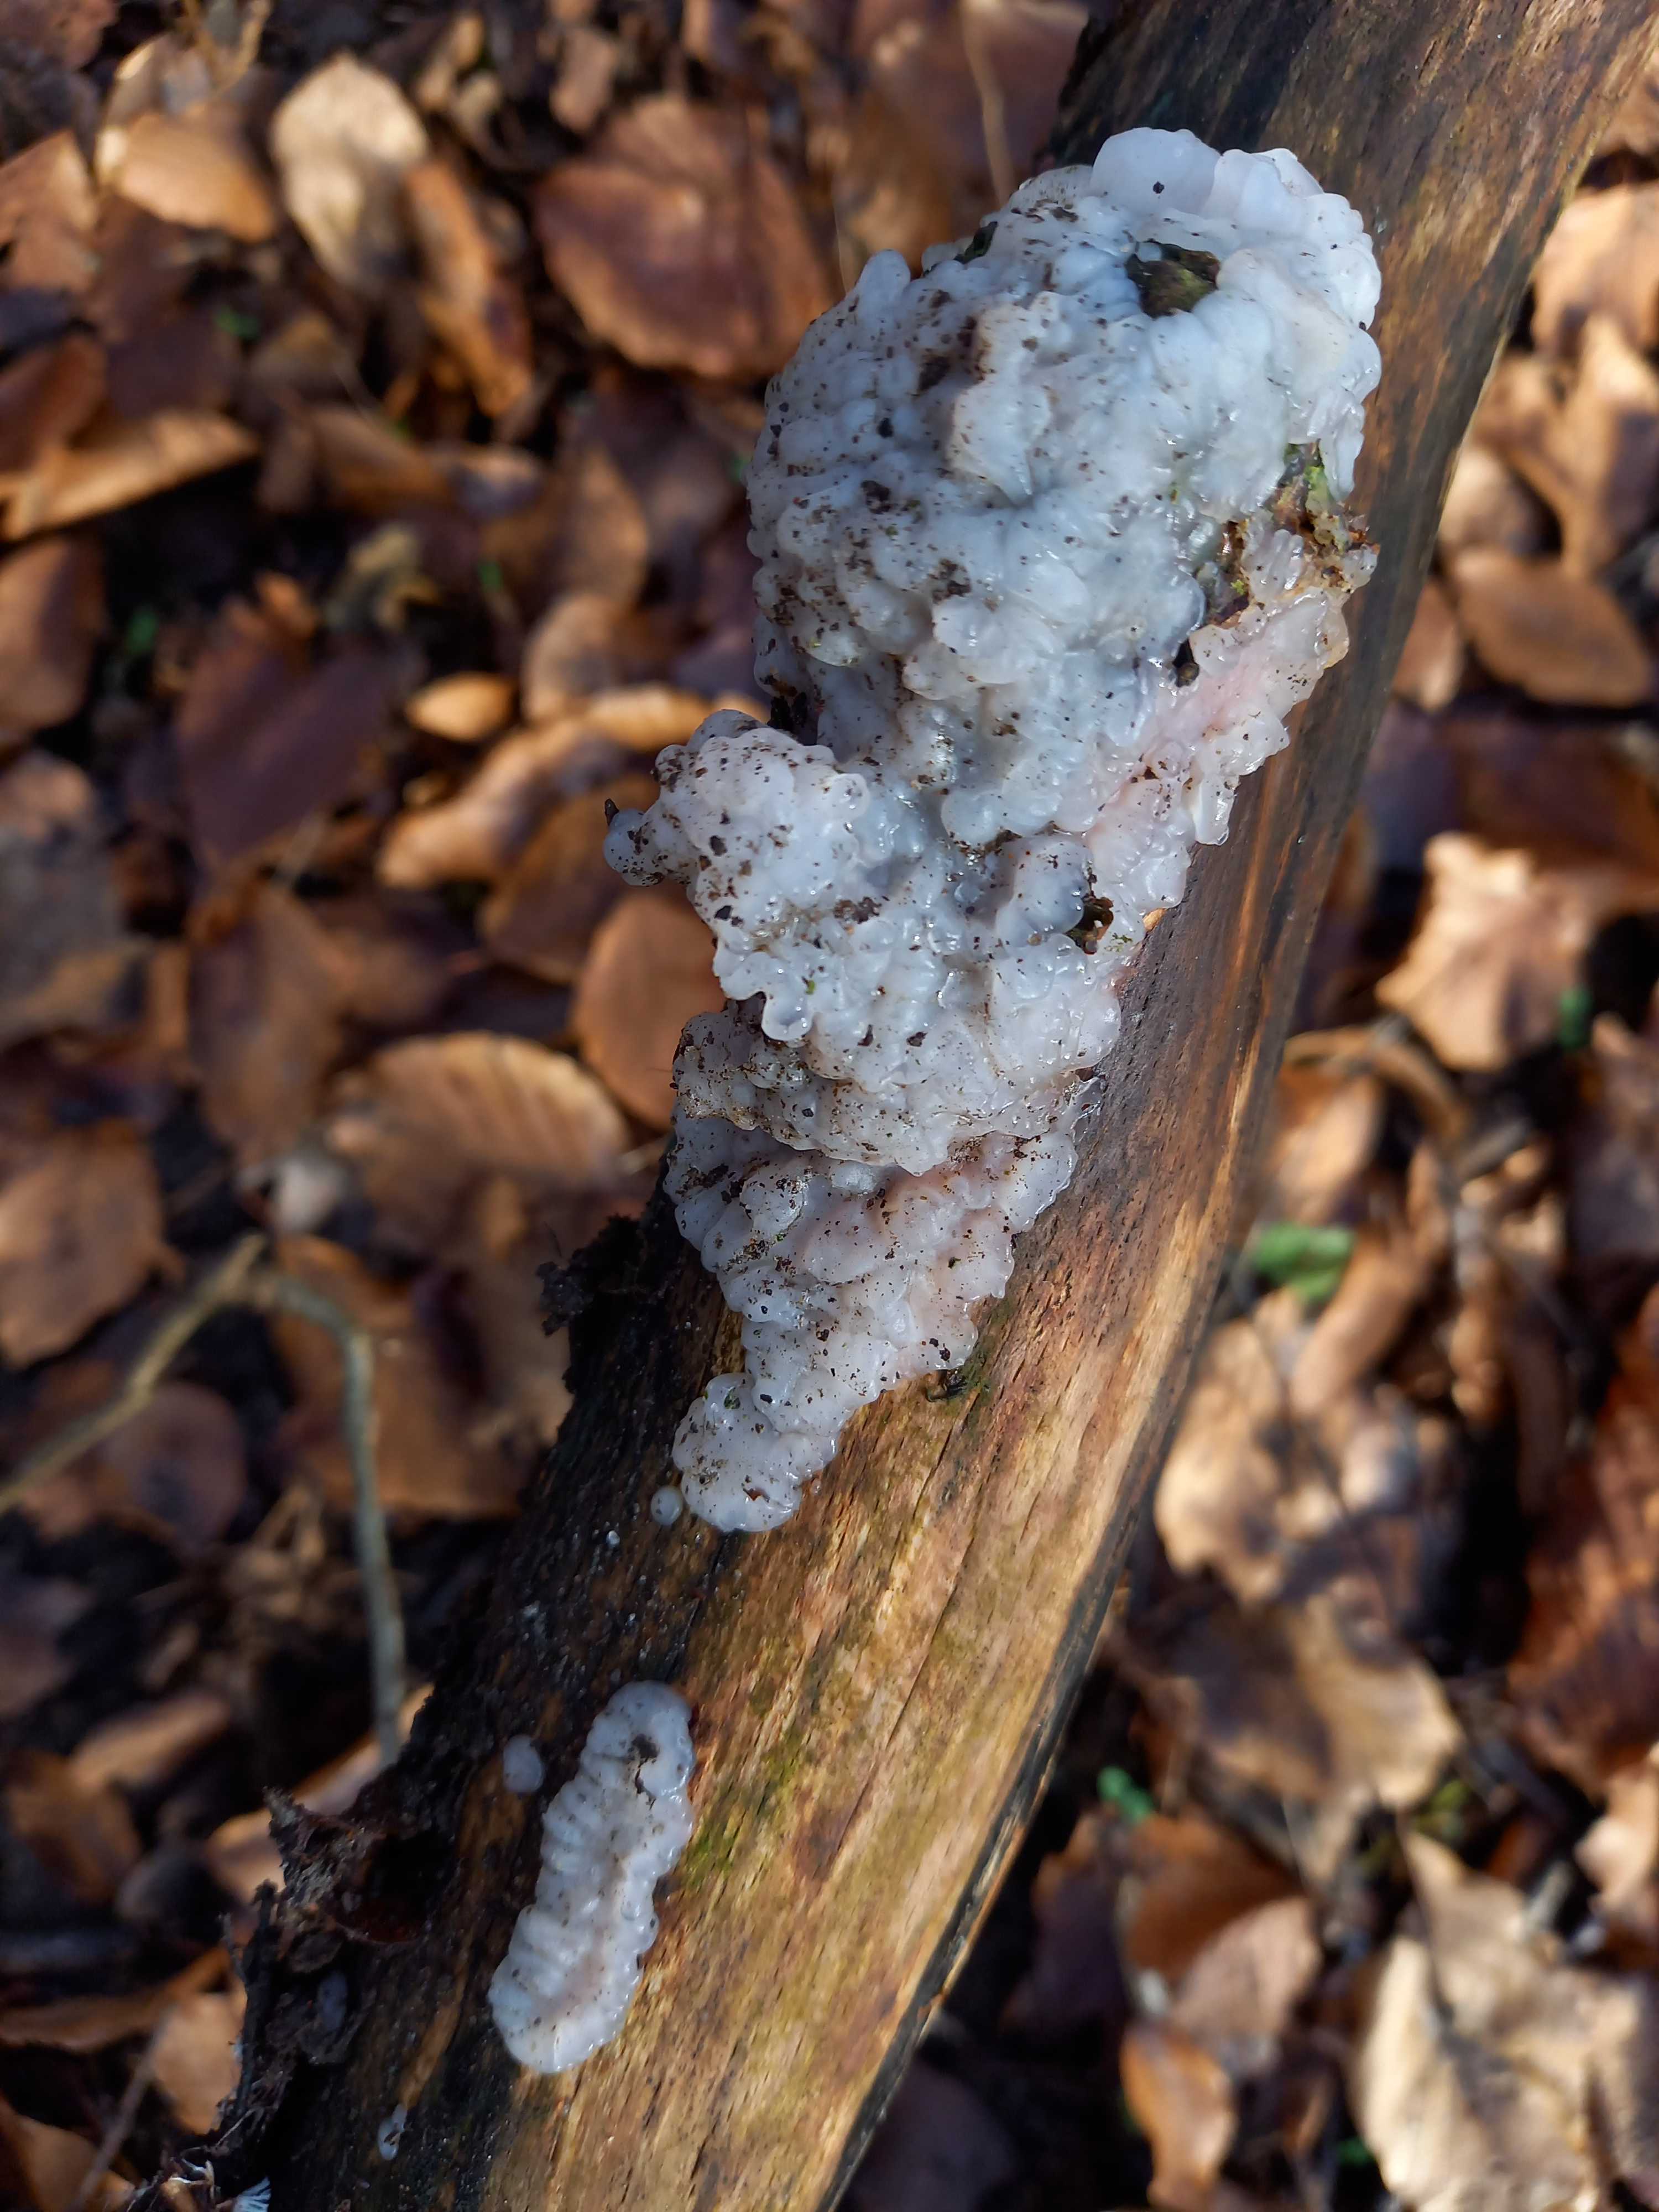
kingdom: Fungi
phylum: Basidiomycota
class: Agaricomycetes
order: Auriculariales
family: Auriculariaceae
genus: Exidia
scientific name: Exidia thuretiana
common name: hvidlig bævretop
